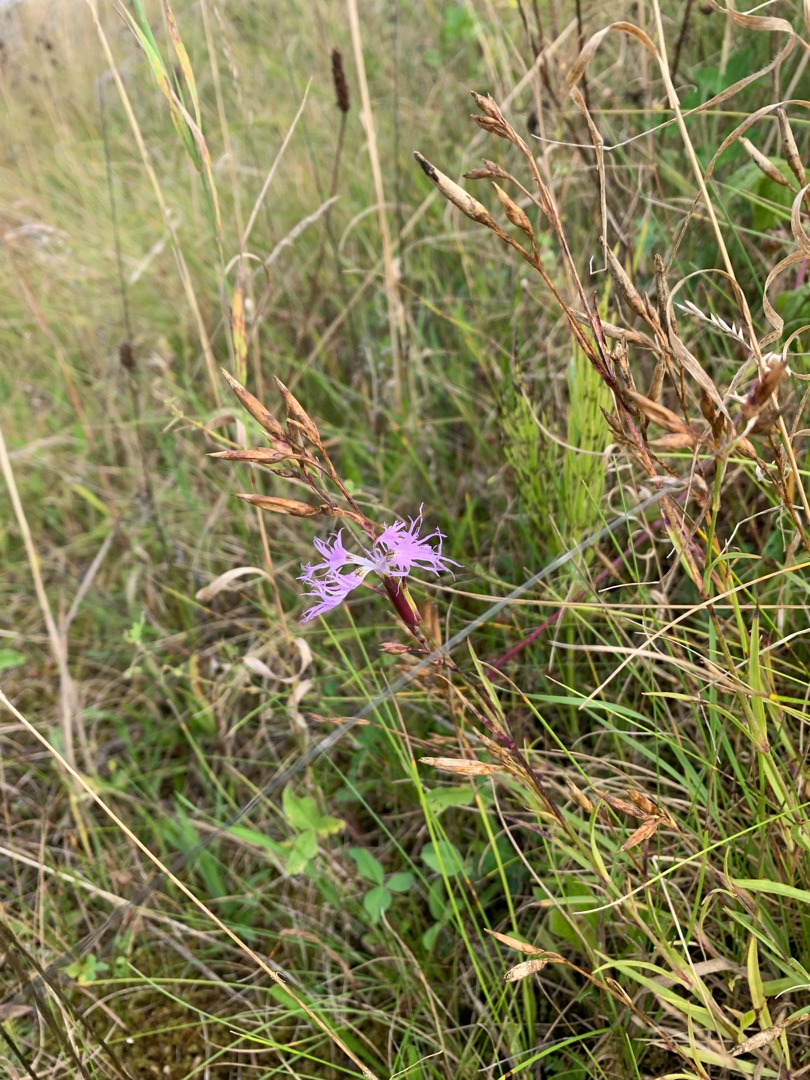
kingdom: Plantae
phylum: Tracheophyta
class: Magnoliopsida
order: Caryophyllales
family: Caryophyllaceae
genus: Dianthus
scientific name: Dianthus superbus
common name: Strand-nellike
